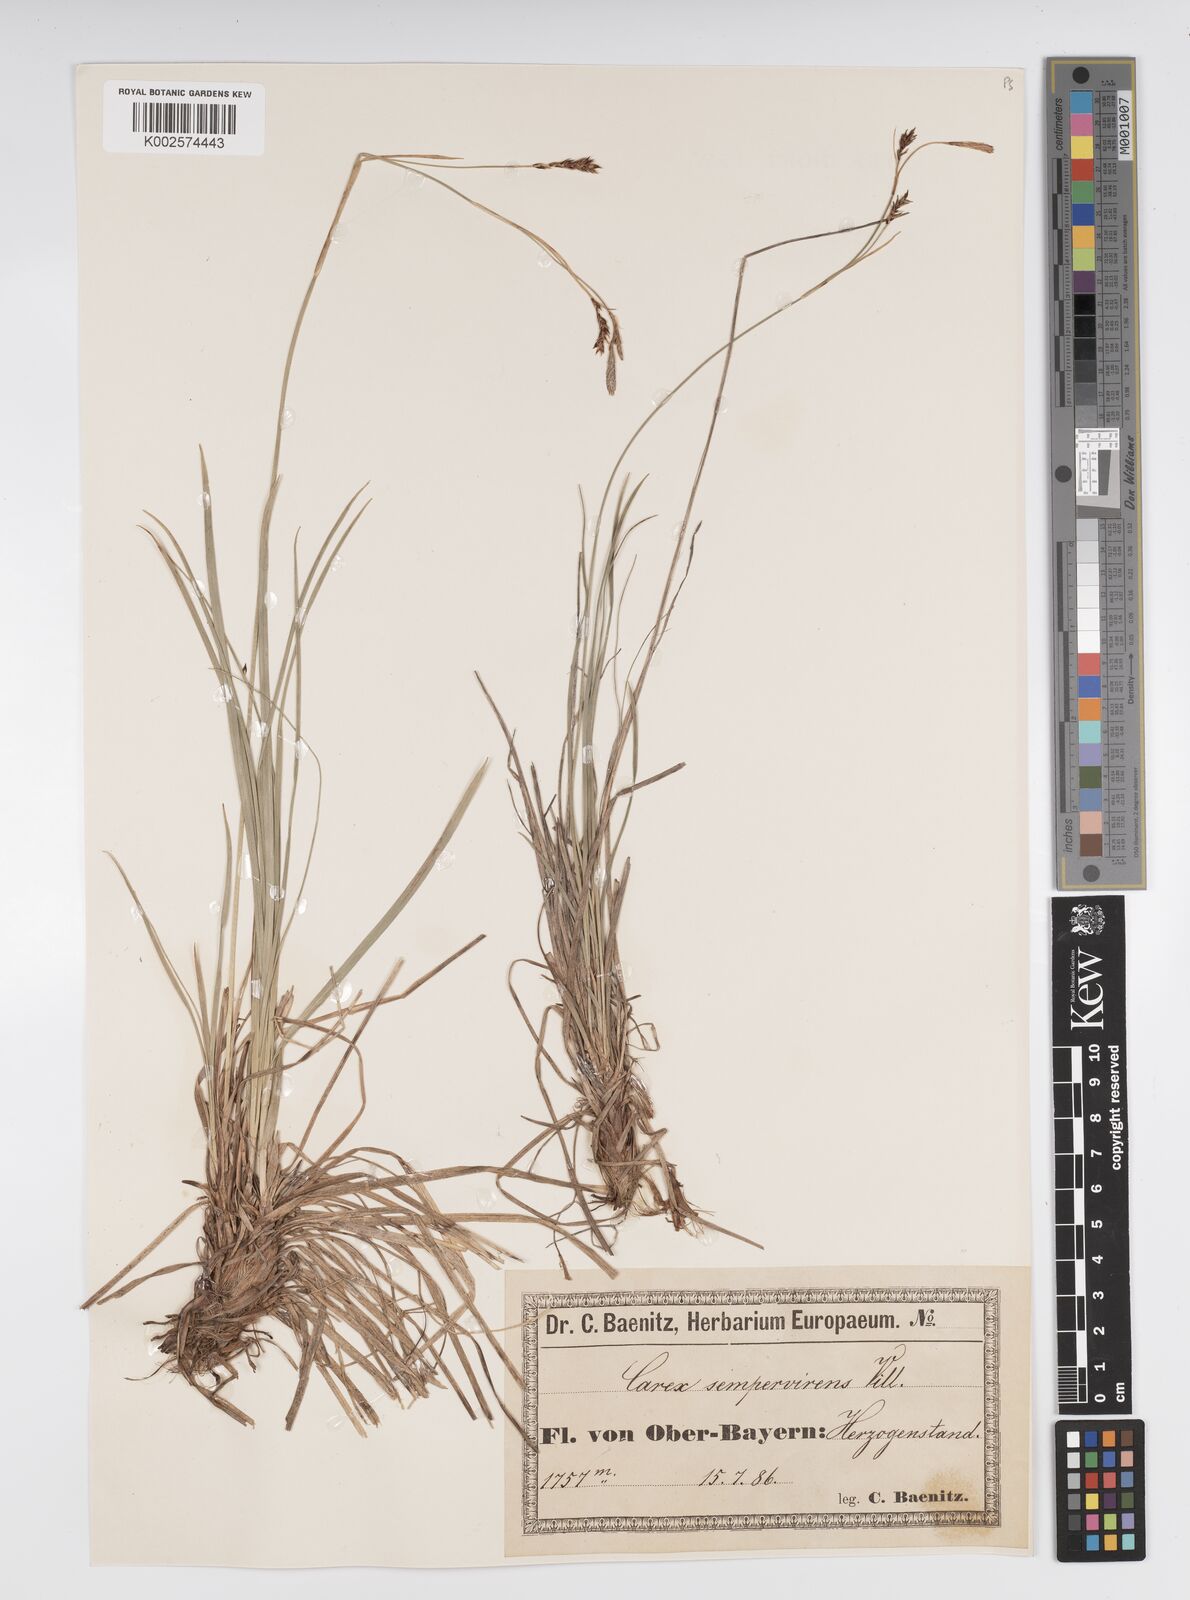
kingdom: Plantae
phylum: Tracheophyta
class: Liliopsida
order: Poales
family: Cyperaceae
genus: Carex
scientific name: Carex sempervirens
